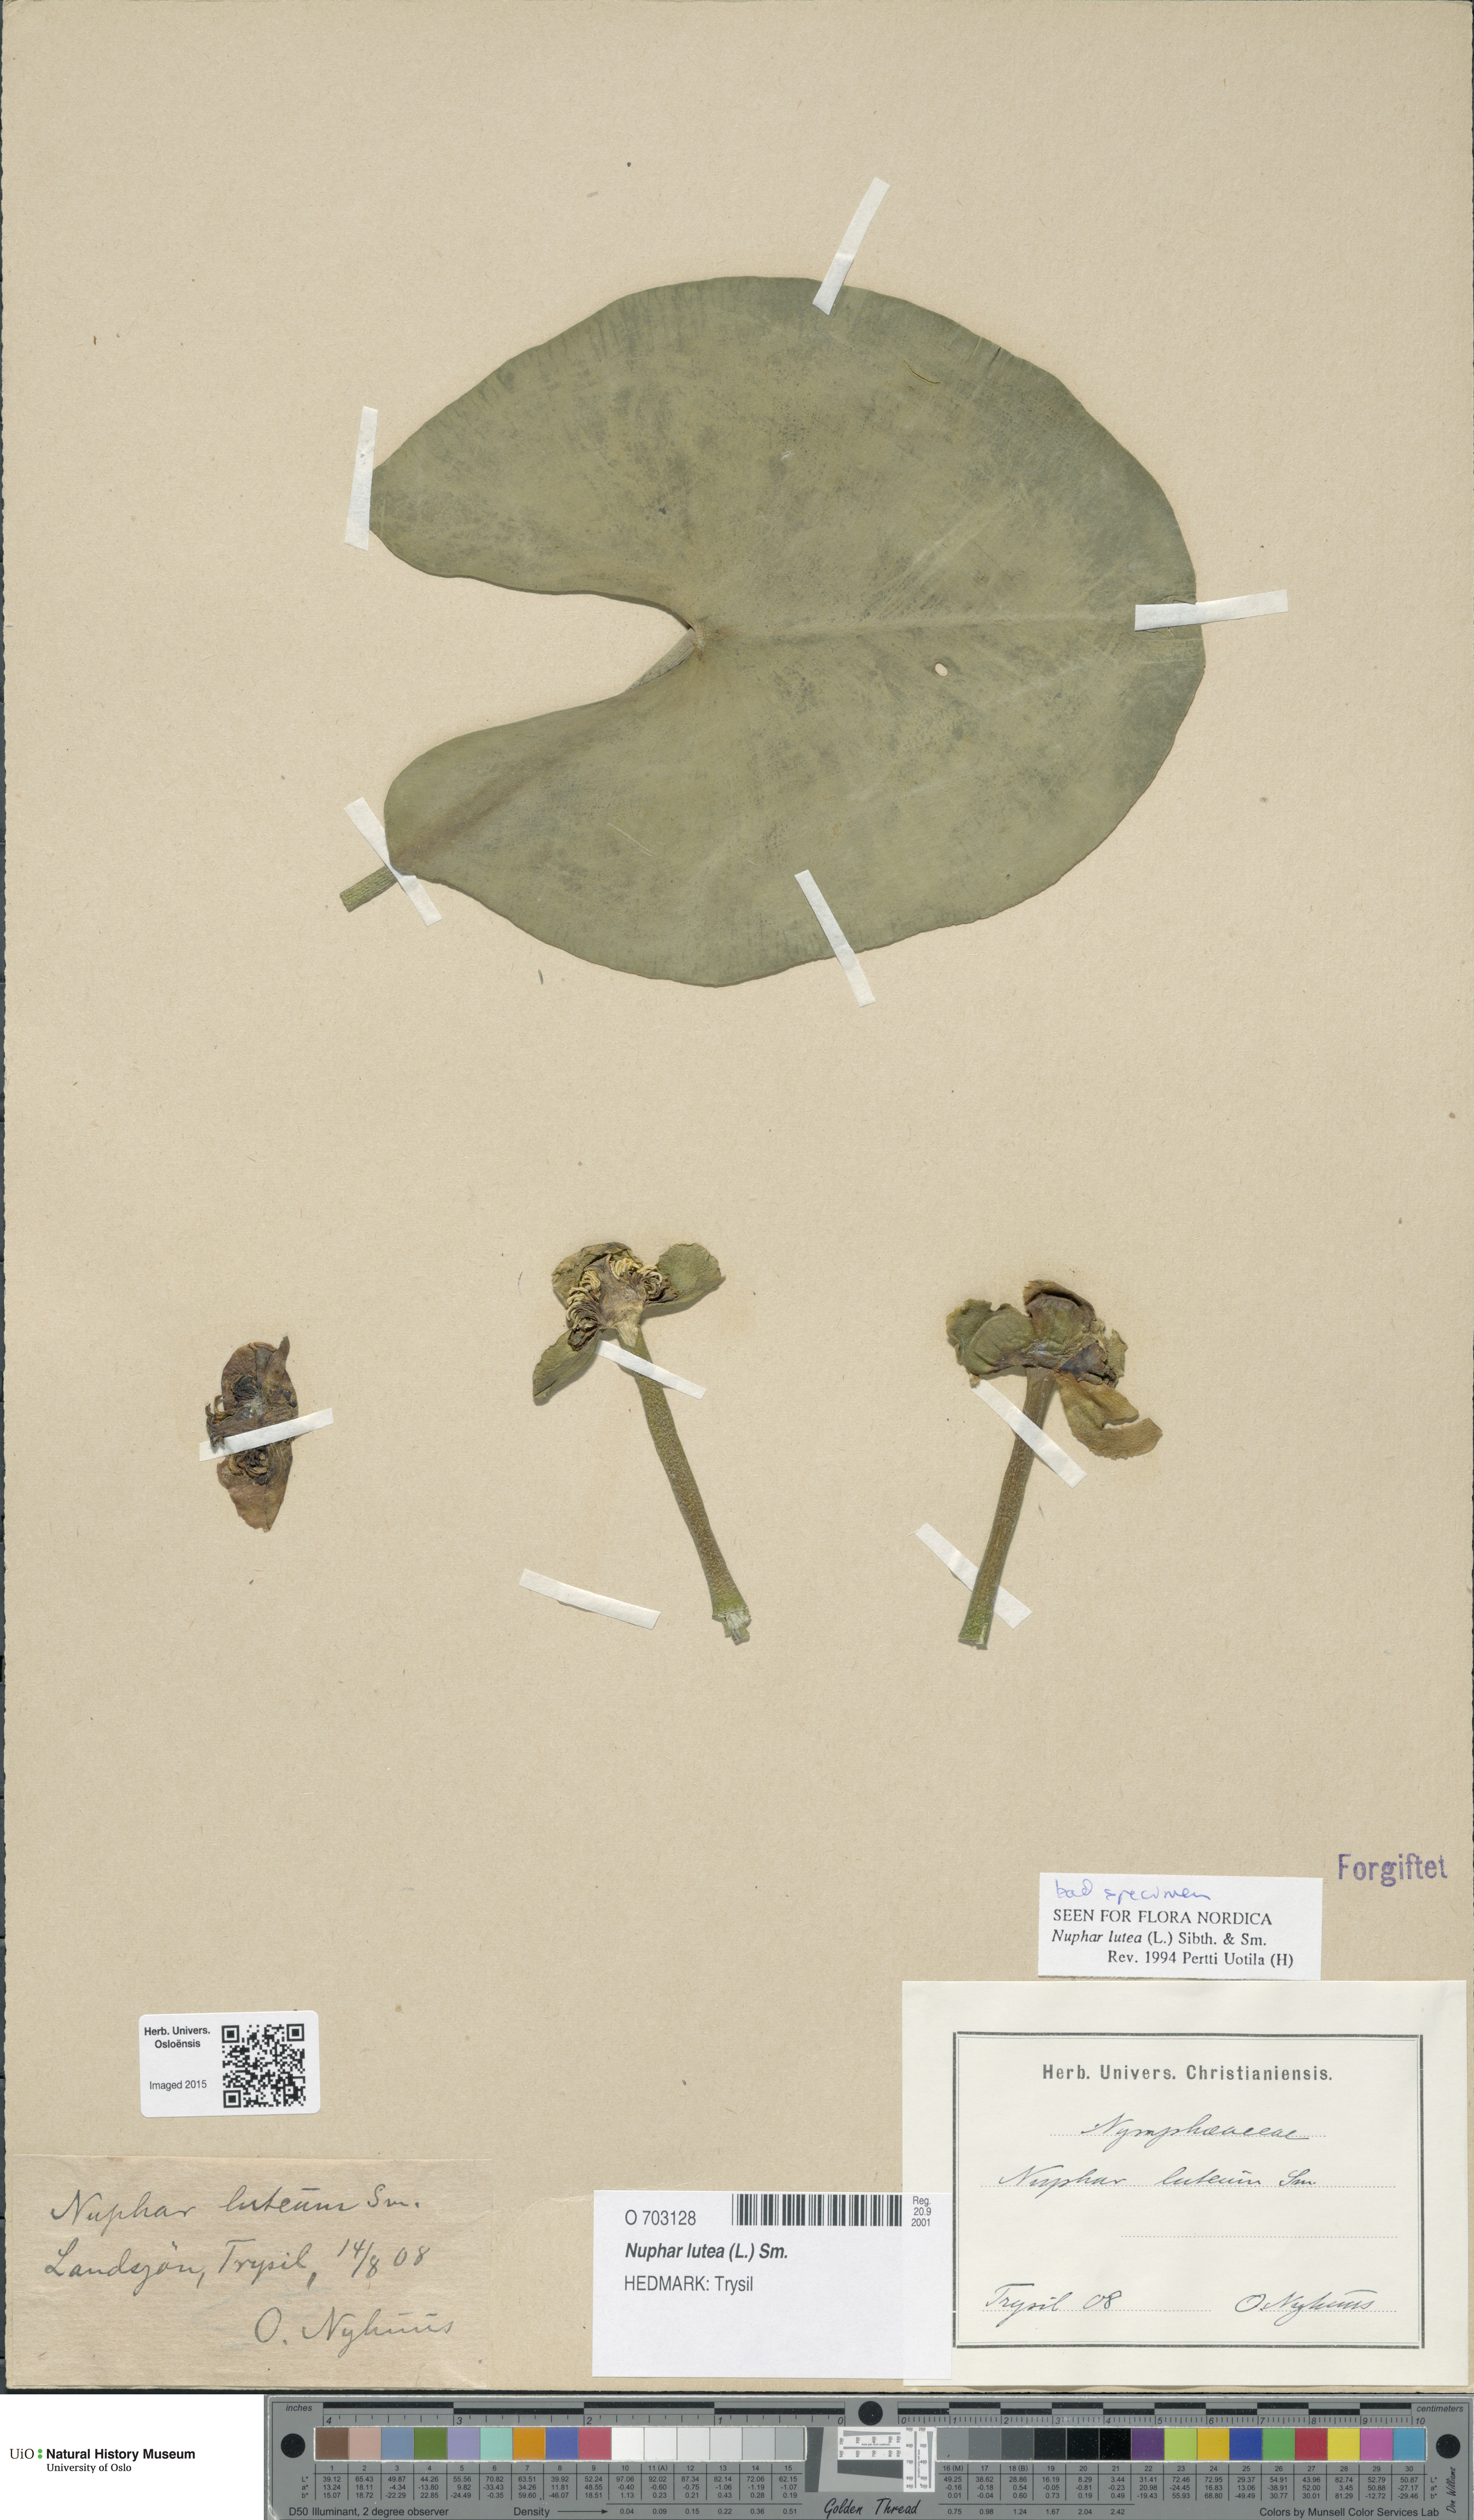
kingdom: Plantae
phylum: Tracheophyta
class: Magnoliopsida
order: Nymphaeales
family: Nymphaeaceae
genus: Nuphar
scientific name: Nuphar lutea
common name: Yellow water-lily
